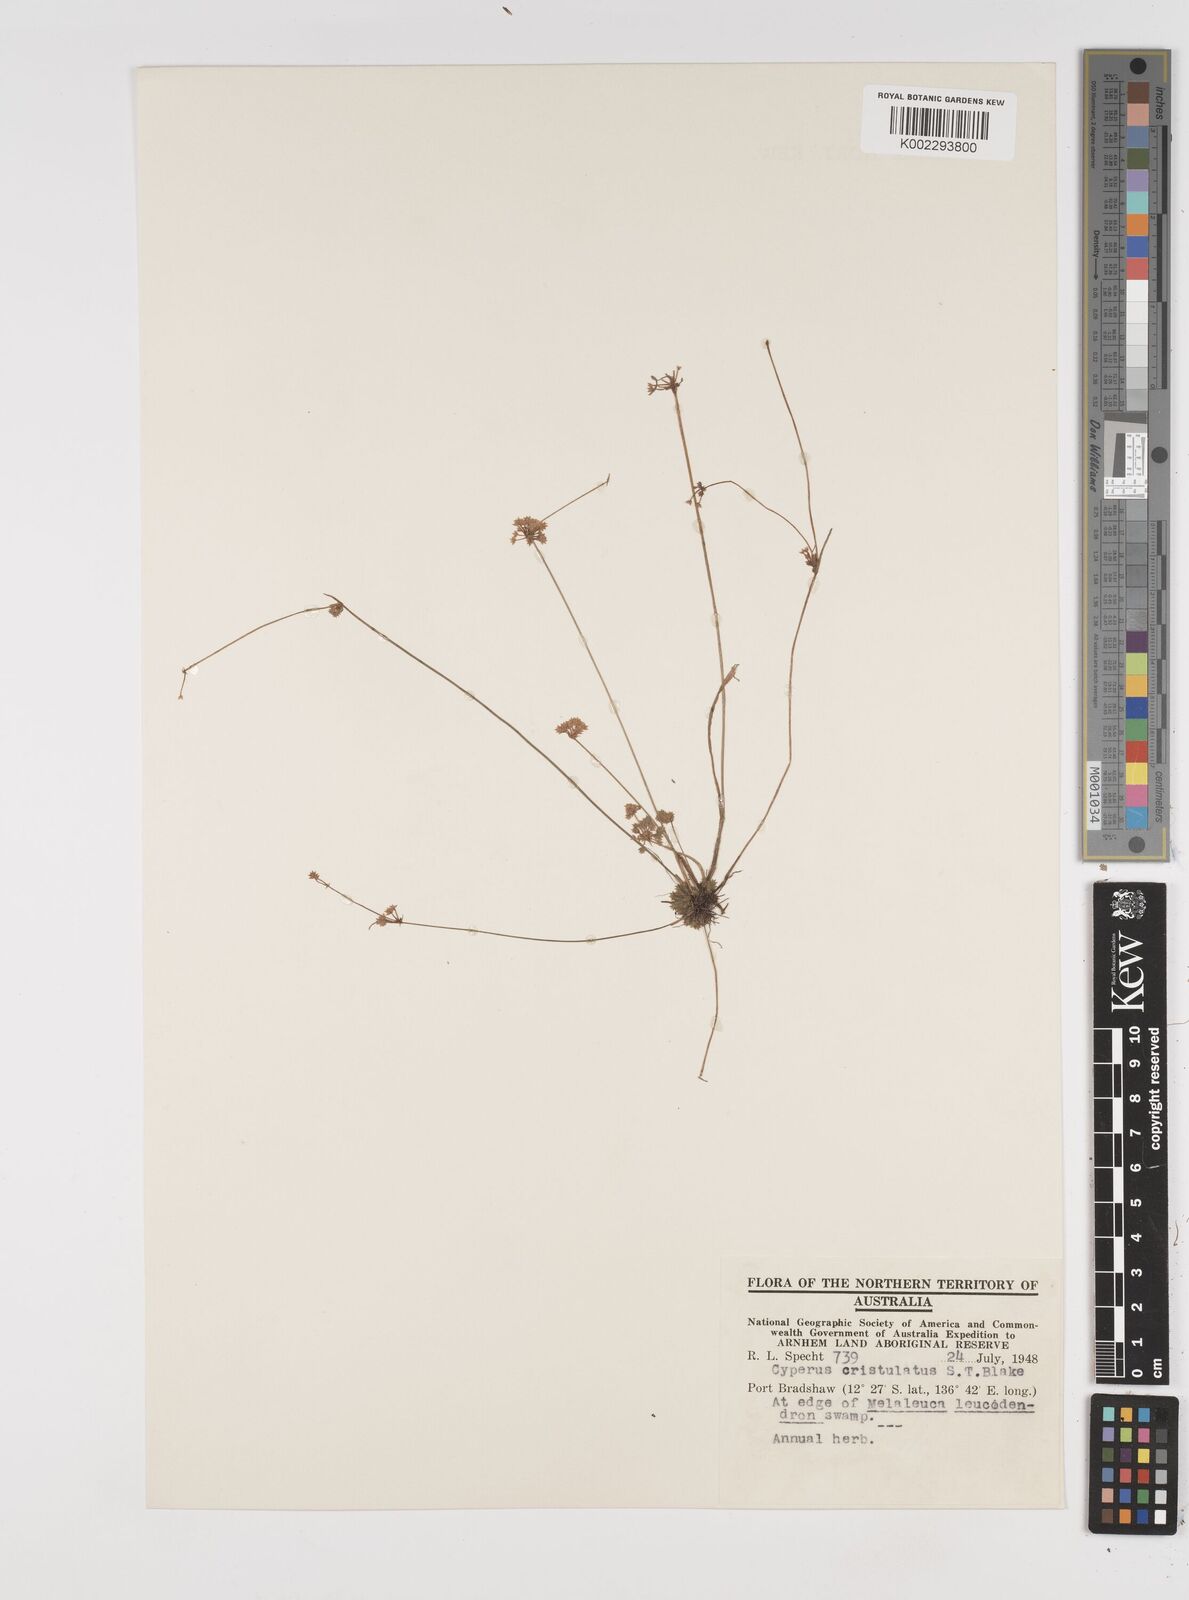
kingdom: Plantae
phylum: Tracheophyta
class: Liliopsida
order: Poales
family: Cyperaceae
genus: Cyperus
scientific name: Cyperus cristulatus
